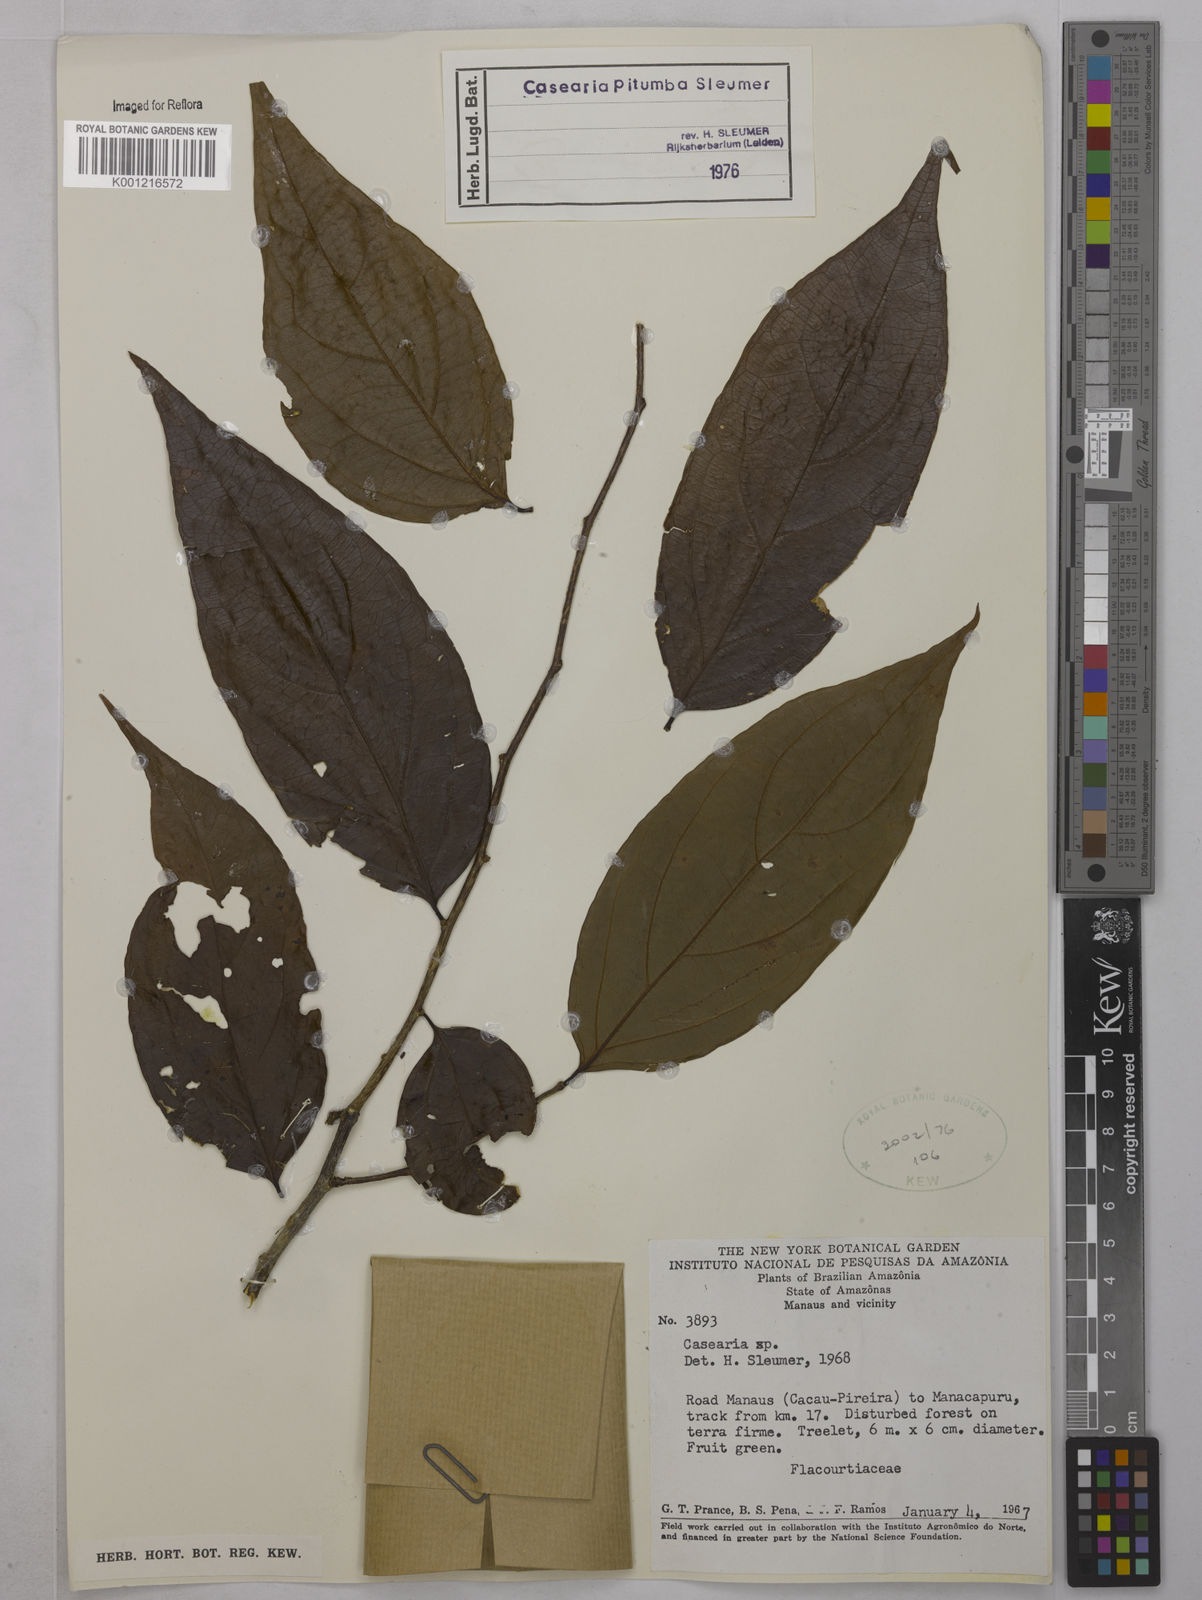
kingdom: Plantae
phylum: Tracheophyta
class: Magnoliopsida
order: Malpighiales
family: Salicaceae
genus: Casearia
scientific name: Casearia pitumba
